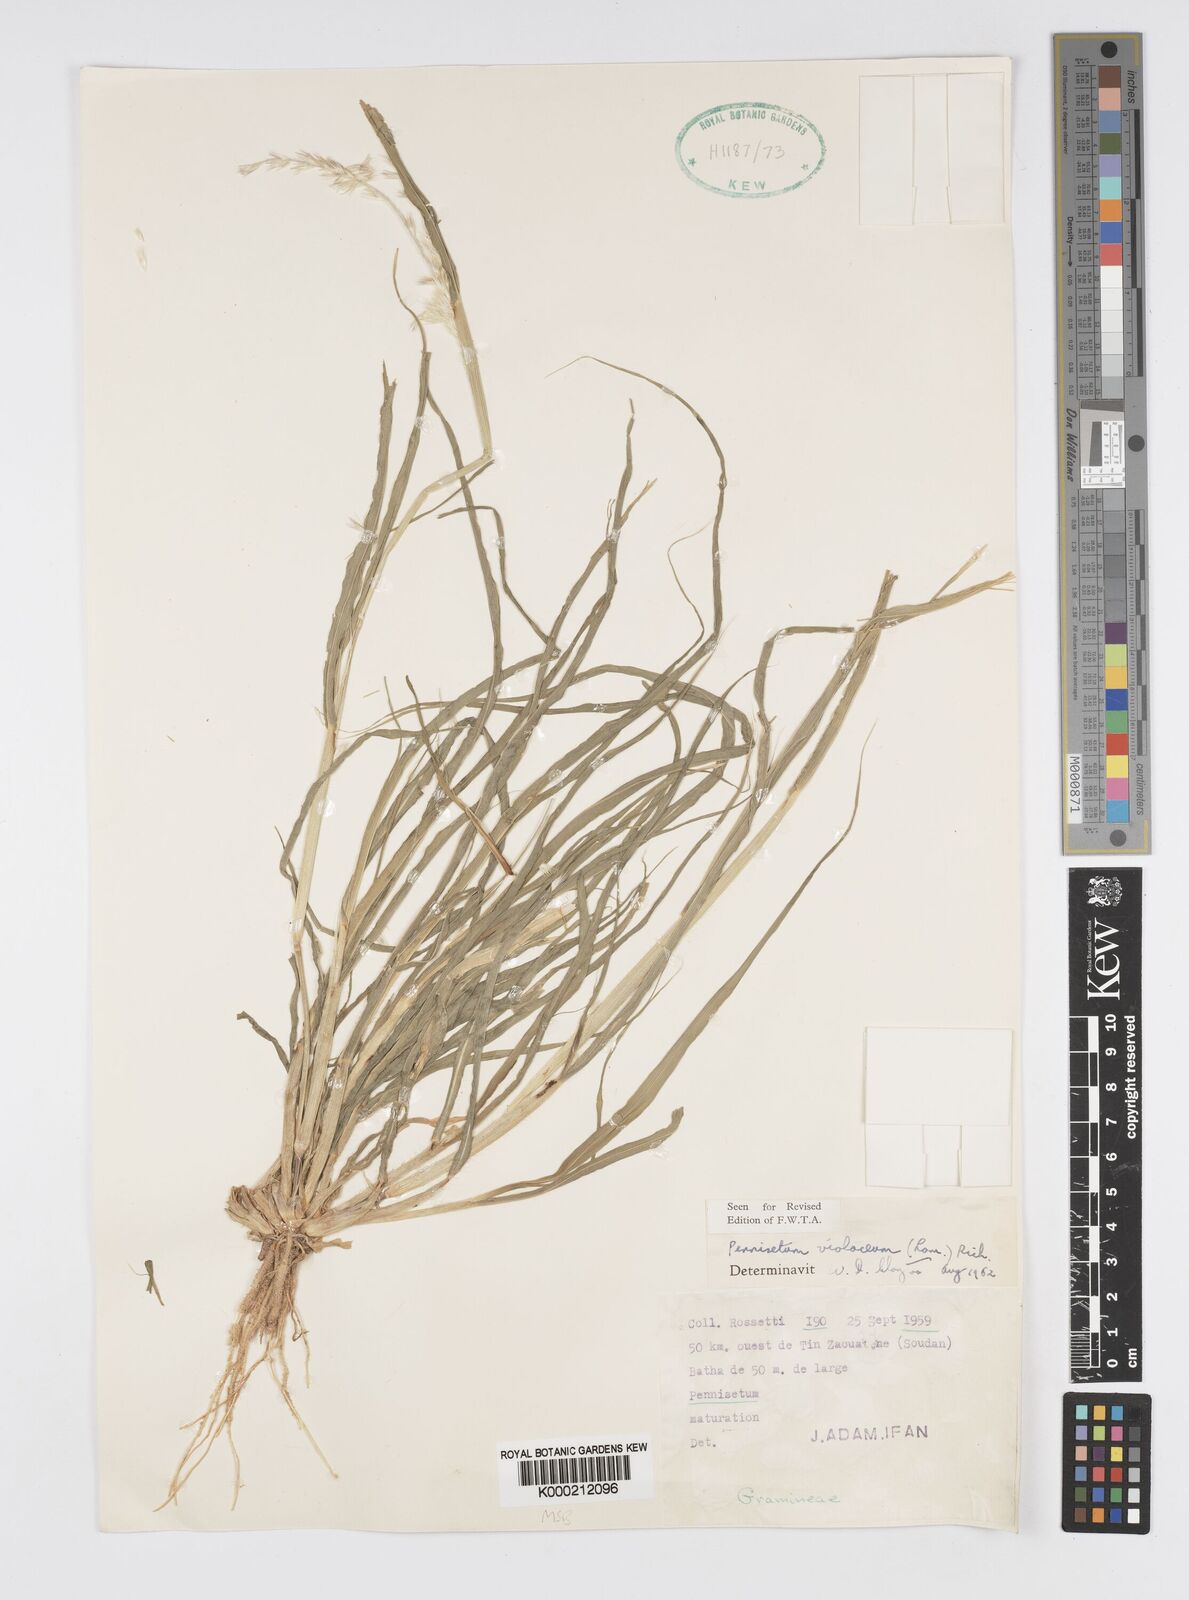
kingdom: Plantae
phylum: Tracheophyta
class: Liliopsida
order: Poales
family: Poaceae
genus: Cenchrus
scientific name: Cenchrus violaceus
